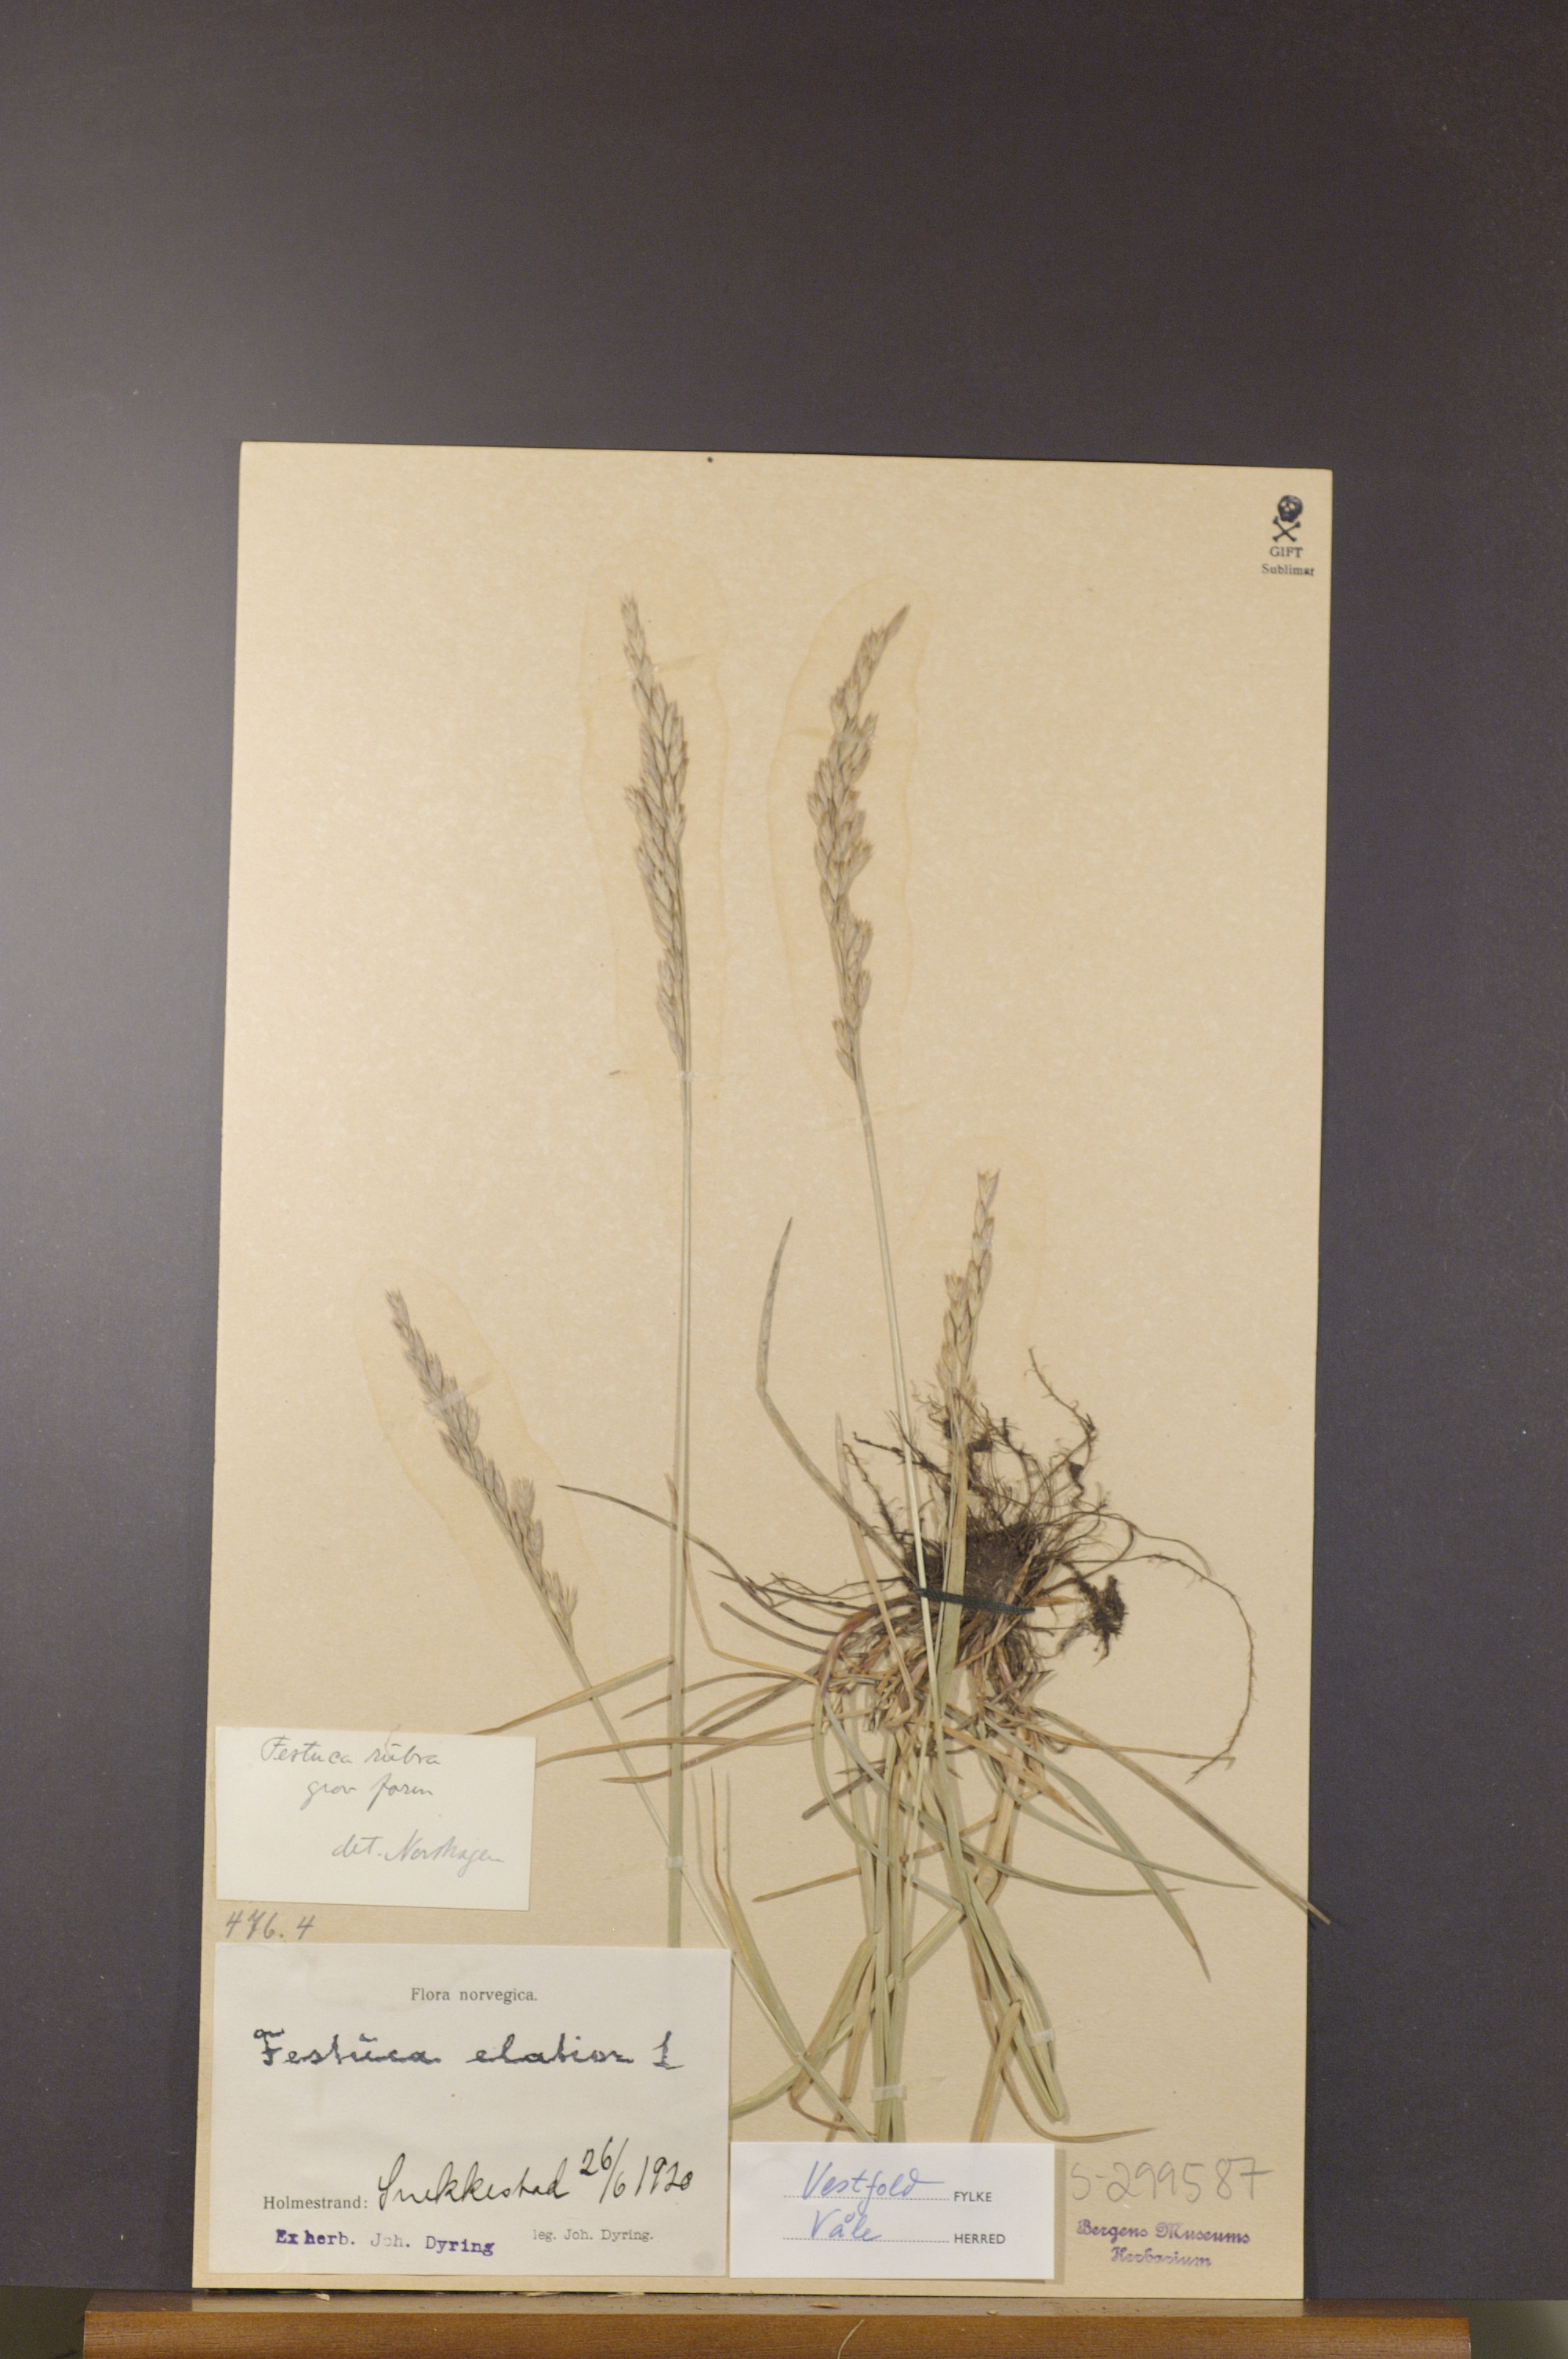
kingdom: Plantae
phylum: Tracheophyta
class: Liliopsida
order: Poales
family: Poaceae
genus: Festuca
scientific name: Festuca rubra
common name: Red fescue
